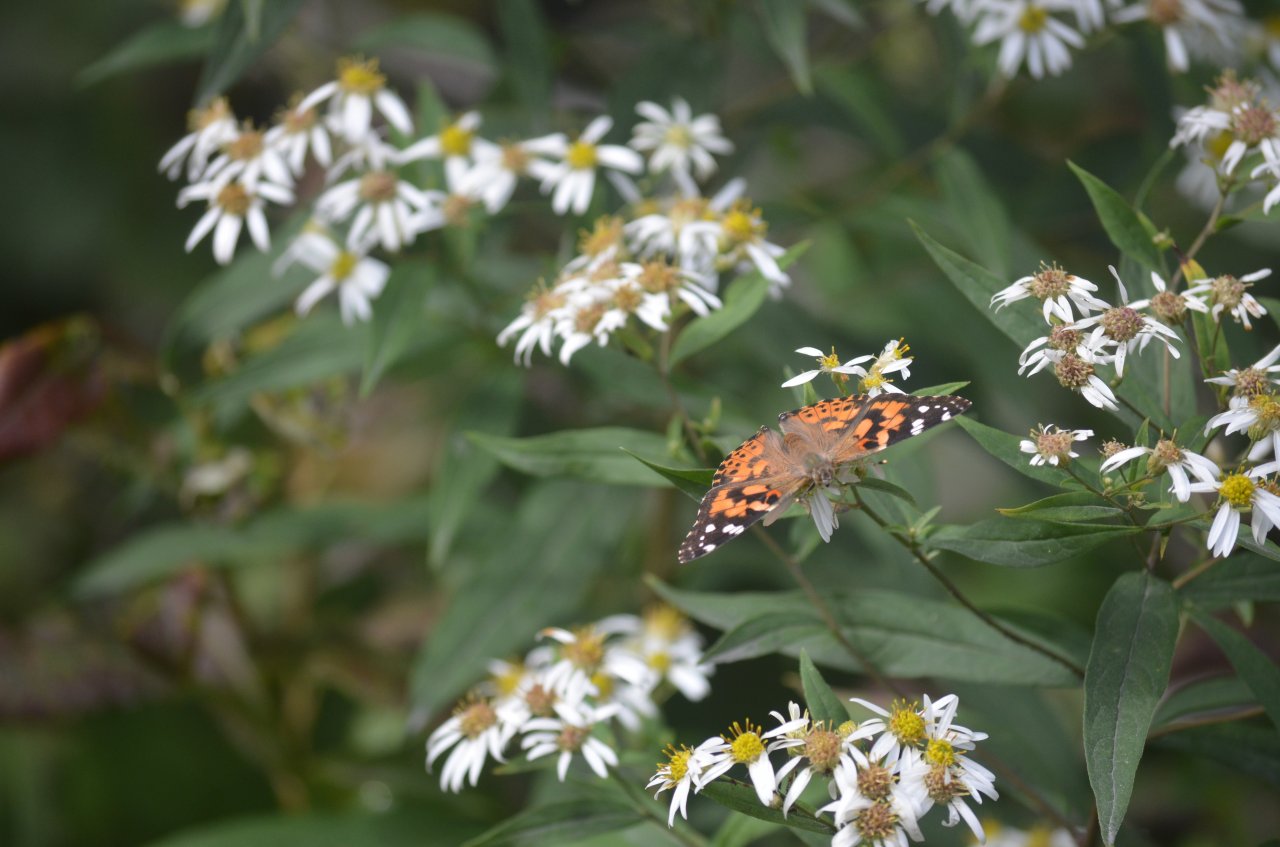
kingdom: Animalia
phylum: Arthropoda
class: Insecta
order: Lepidoptera
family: Nymphalidae
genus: Vanessa
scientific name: Vanessa cardui
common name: Painted Lady
